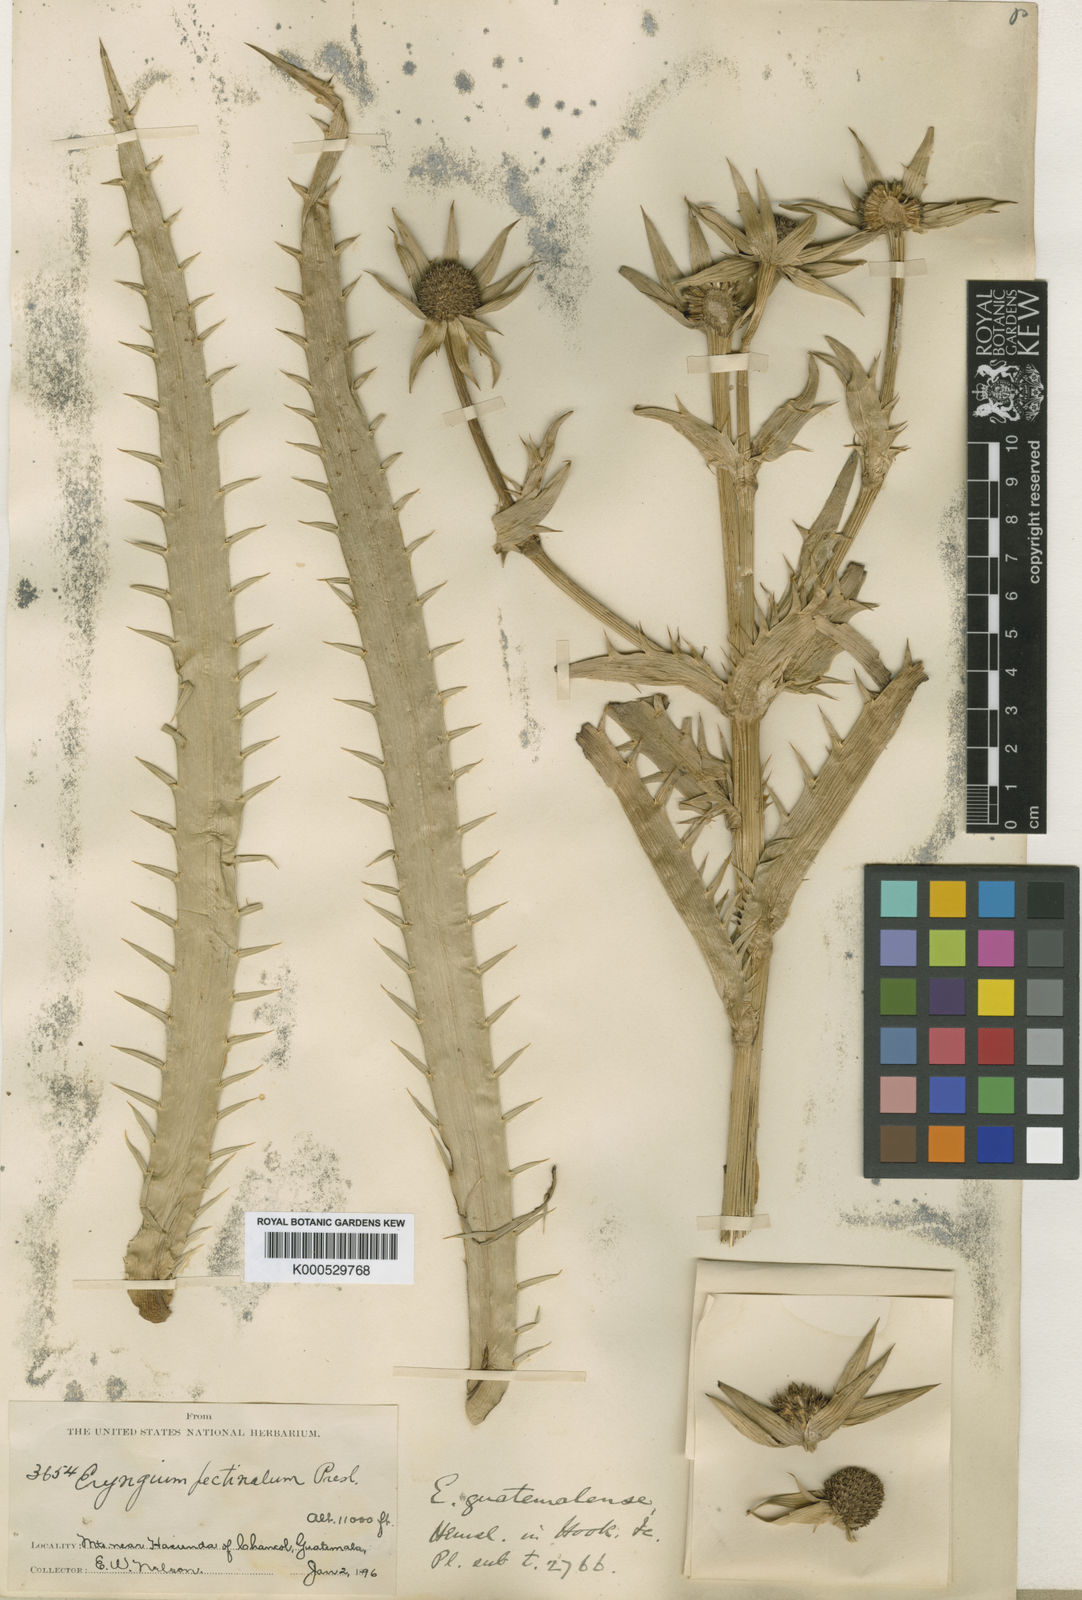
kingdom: Plantae
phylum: Tracheophyta
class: Magnoliopsida
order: Apiales
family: Apiaceae
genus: Eryngium
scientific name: Eryngium guatemalense
